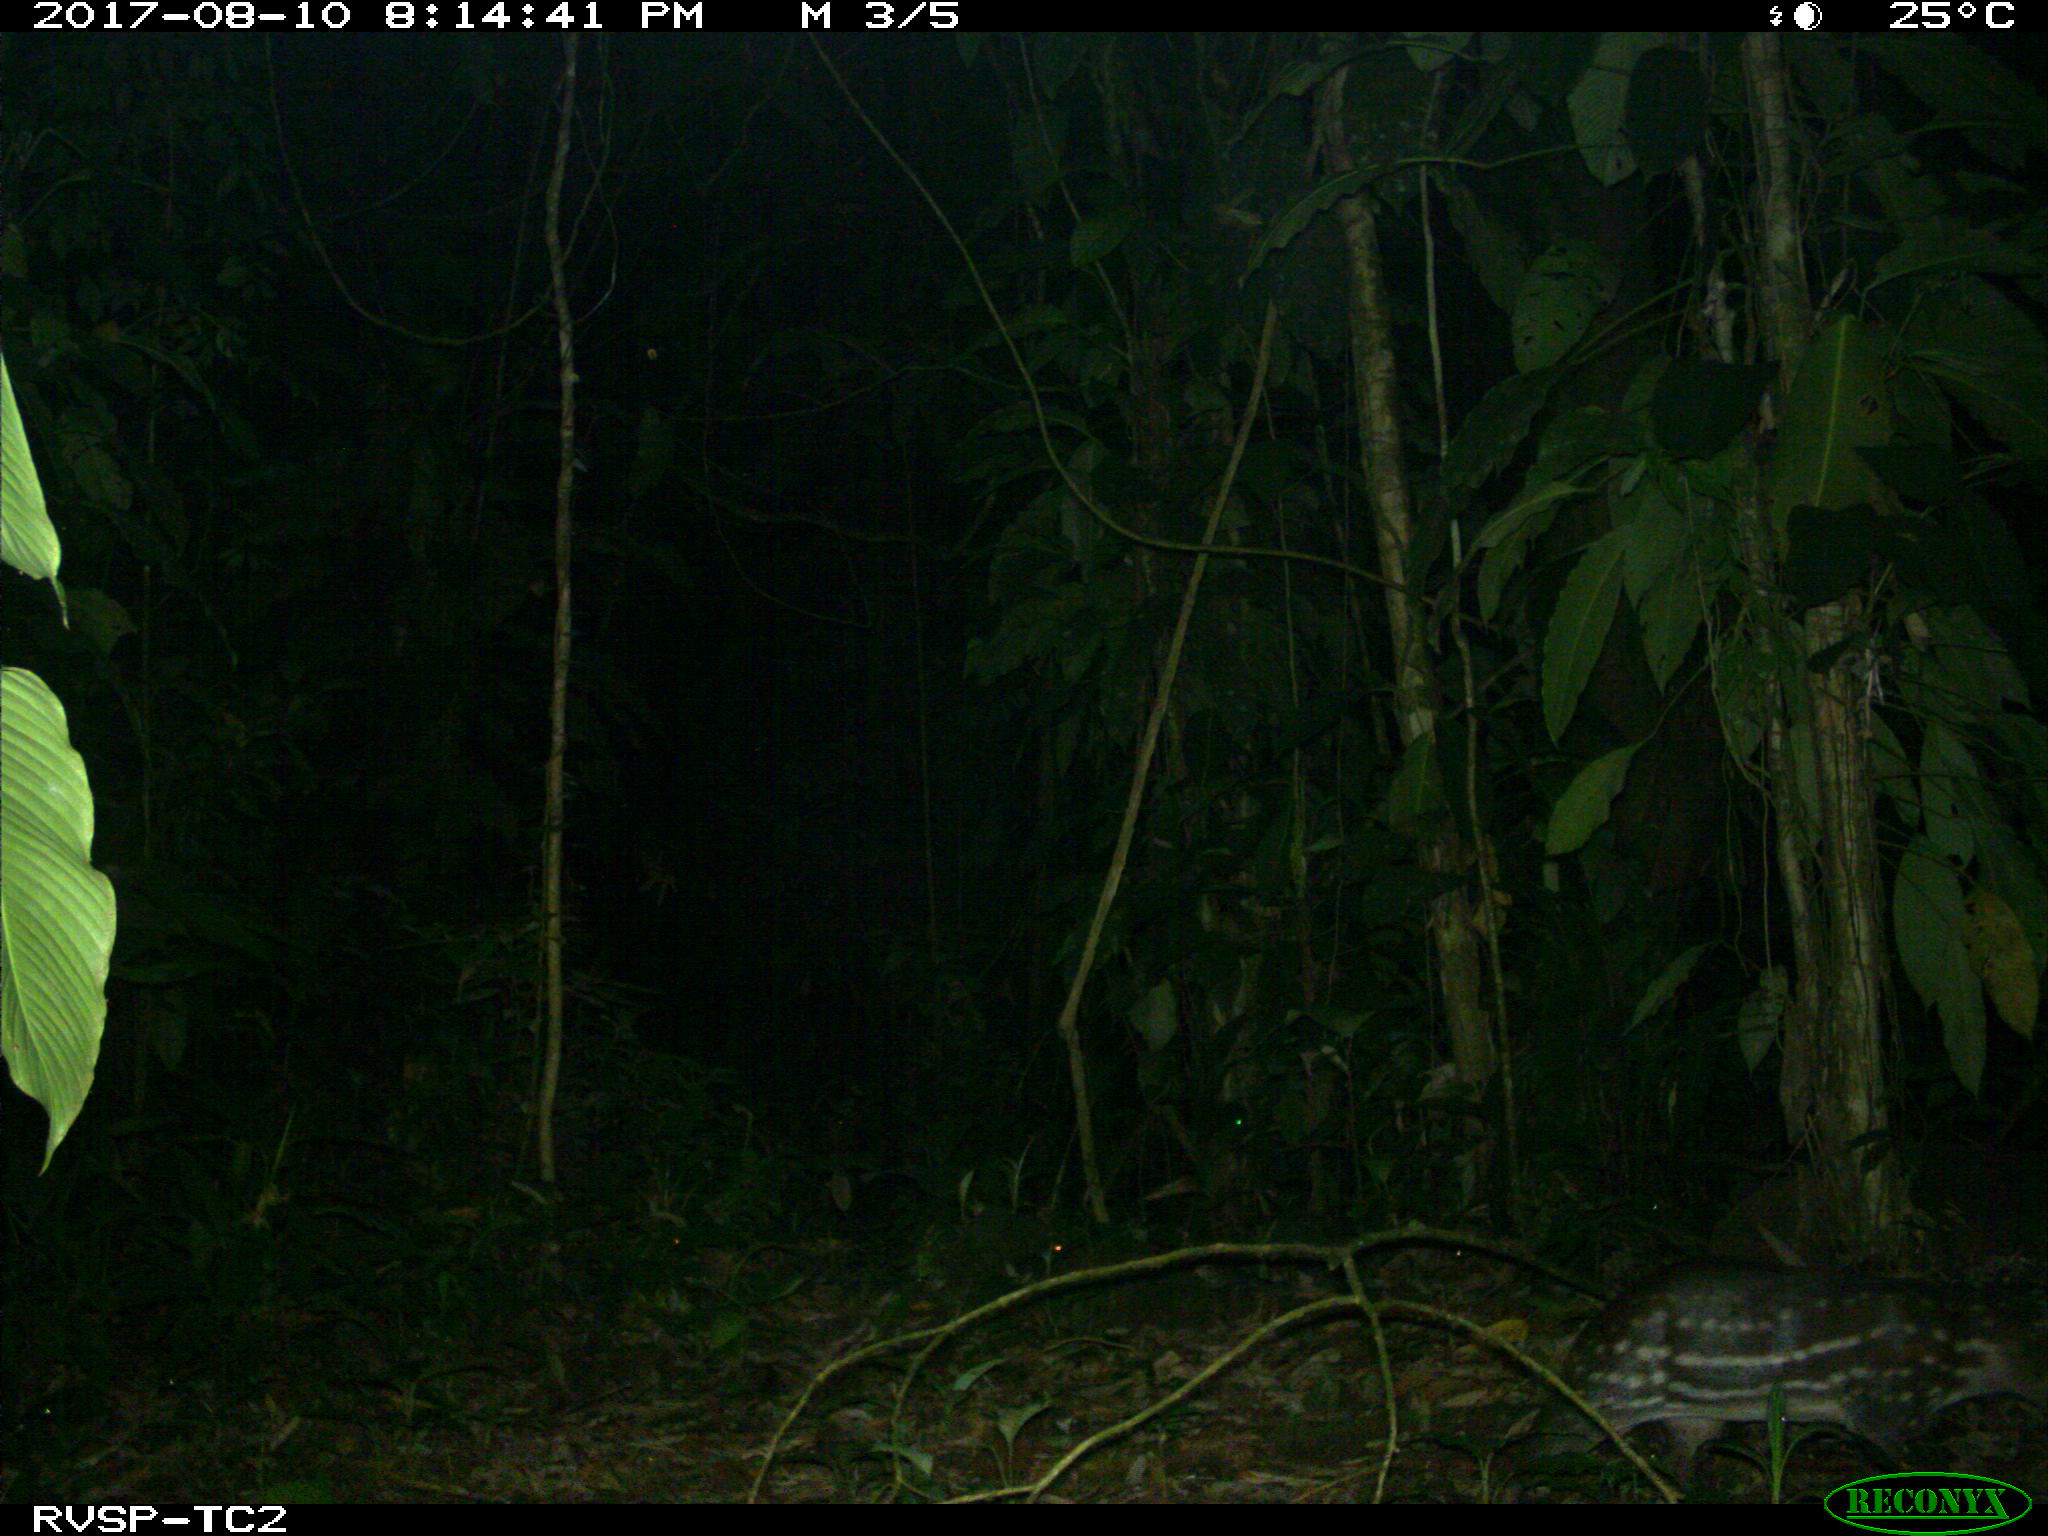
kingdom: Animalia
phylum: Chordata
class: Mammalia
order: Rodentia
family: Cuniculidae
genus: Cuniculus
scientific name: Cuniculus paca
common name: Lowland paca
